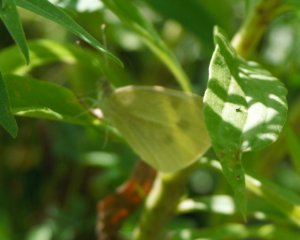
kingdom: Animalia
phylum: Arthropoda
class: Insecta
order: Lepidoptera
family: Pieridae
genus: Pieris
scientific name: Pieris rapae
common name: Cabbage White
